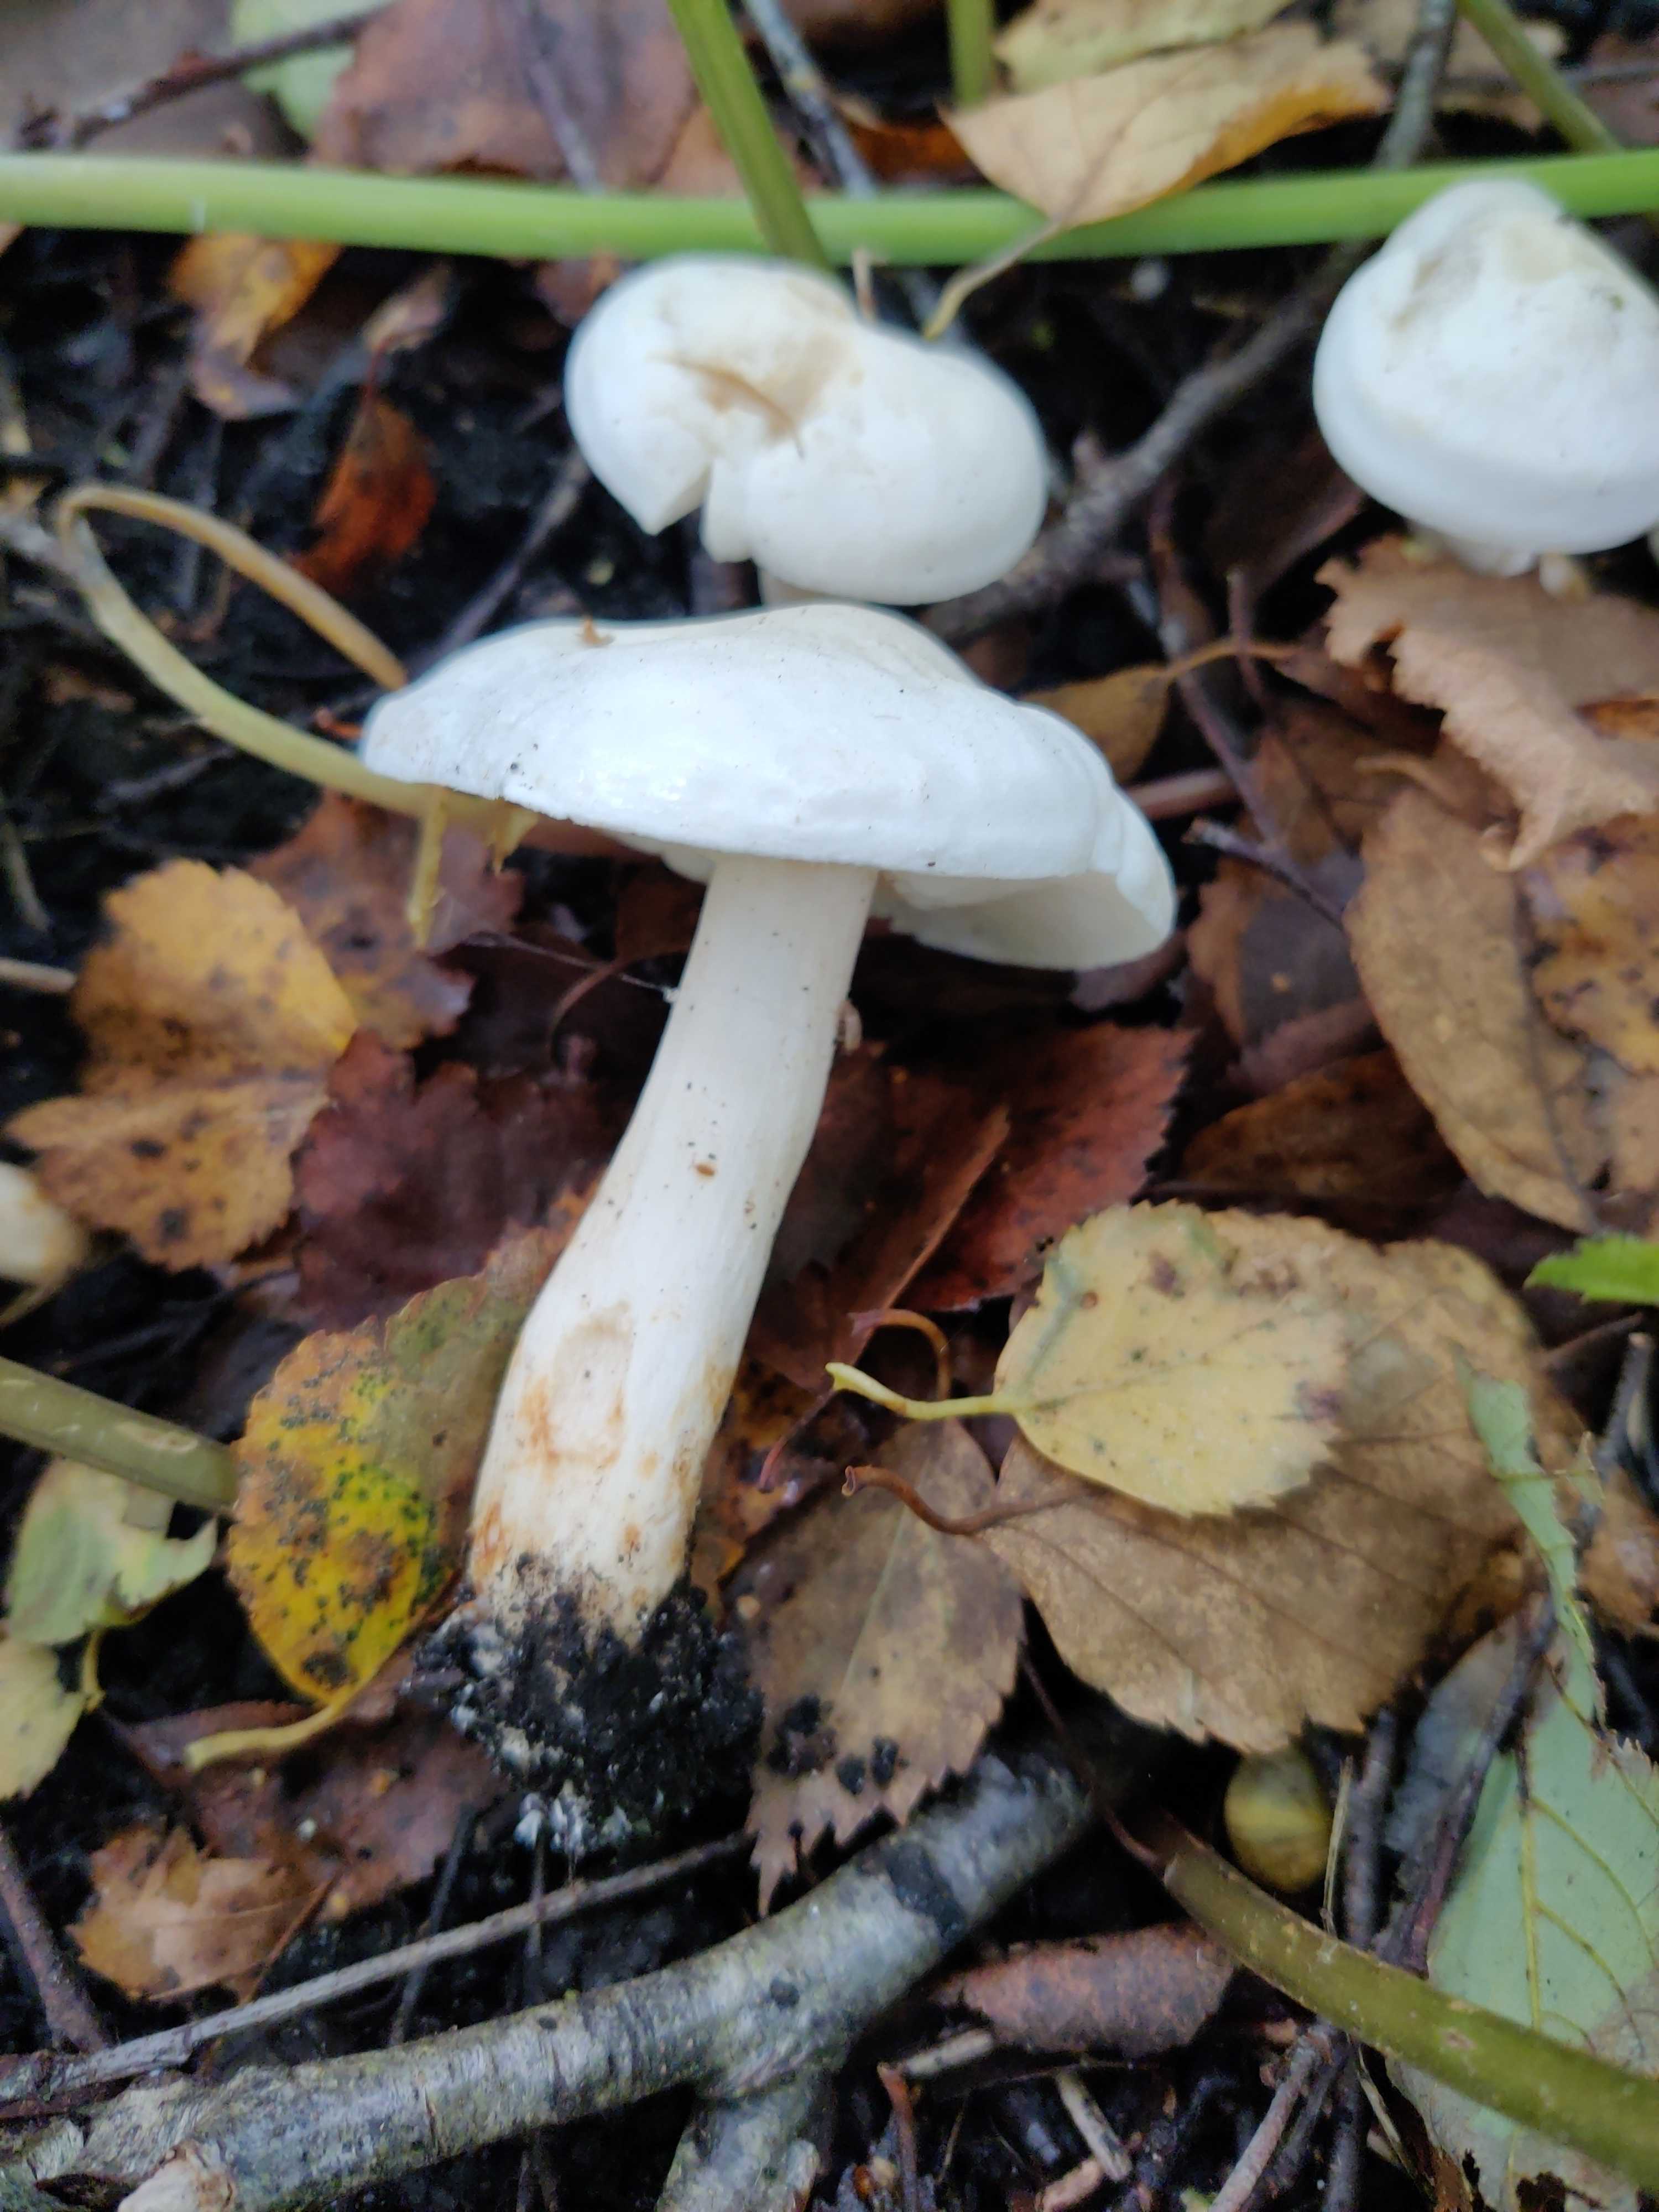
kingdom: Fungi
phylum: Basidiomycota
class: Agaricomycetes
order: Agaricales
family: Tricholomataceae
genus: Tricholoma
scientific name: Tricholoma stiparophyllum
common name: hvid ridderhat
